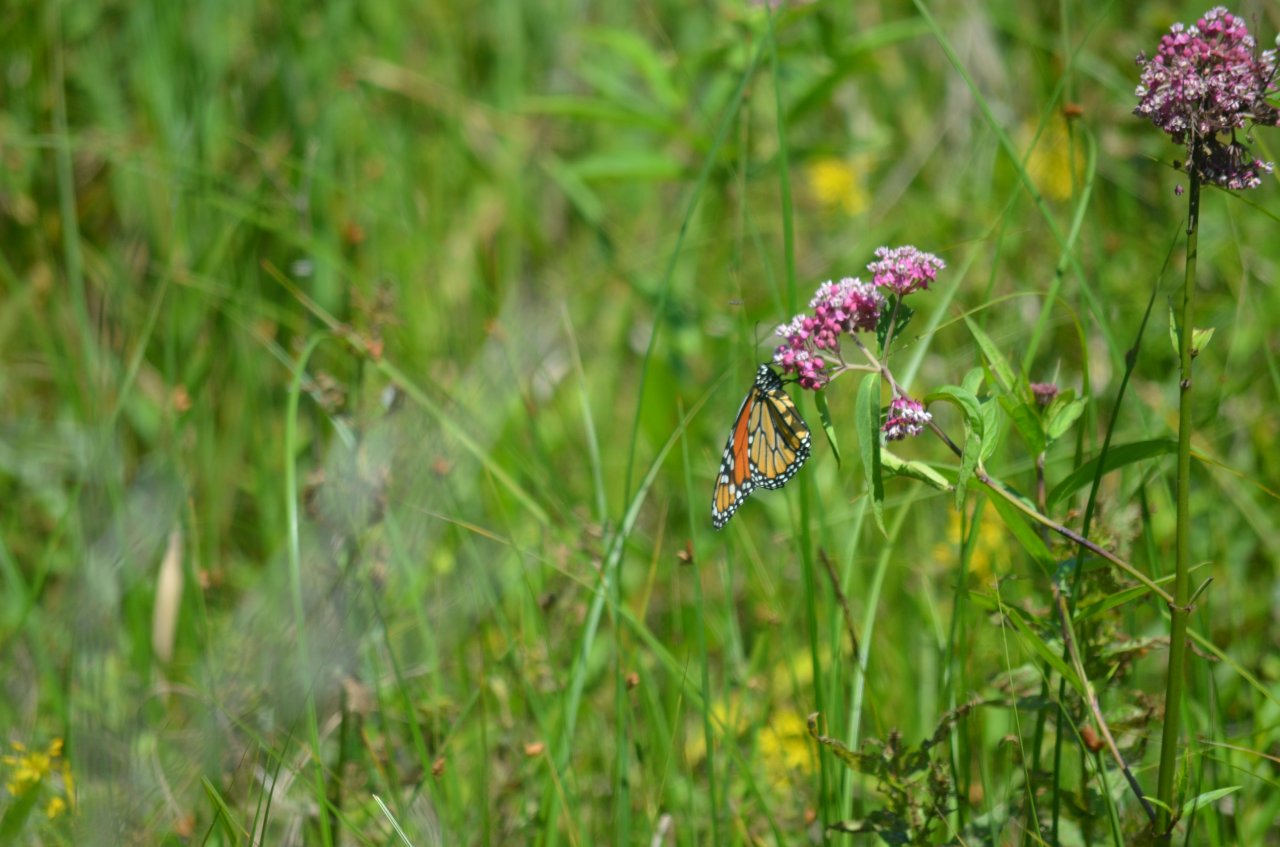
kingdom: Animalia
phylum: Arthropoda
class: Insecta
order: Lepidoptera
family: Nymphalidae
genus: Danaus
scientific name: Danaus plexippus
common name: Monarch
